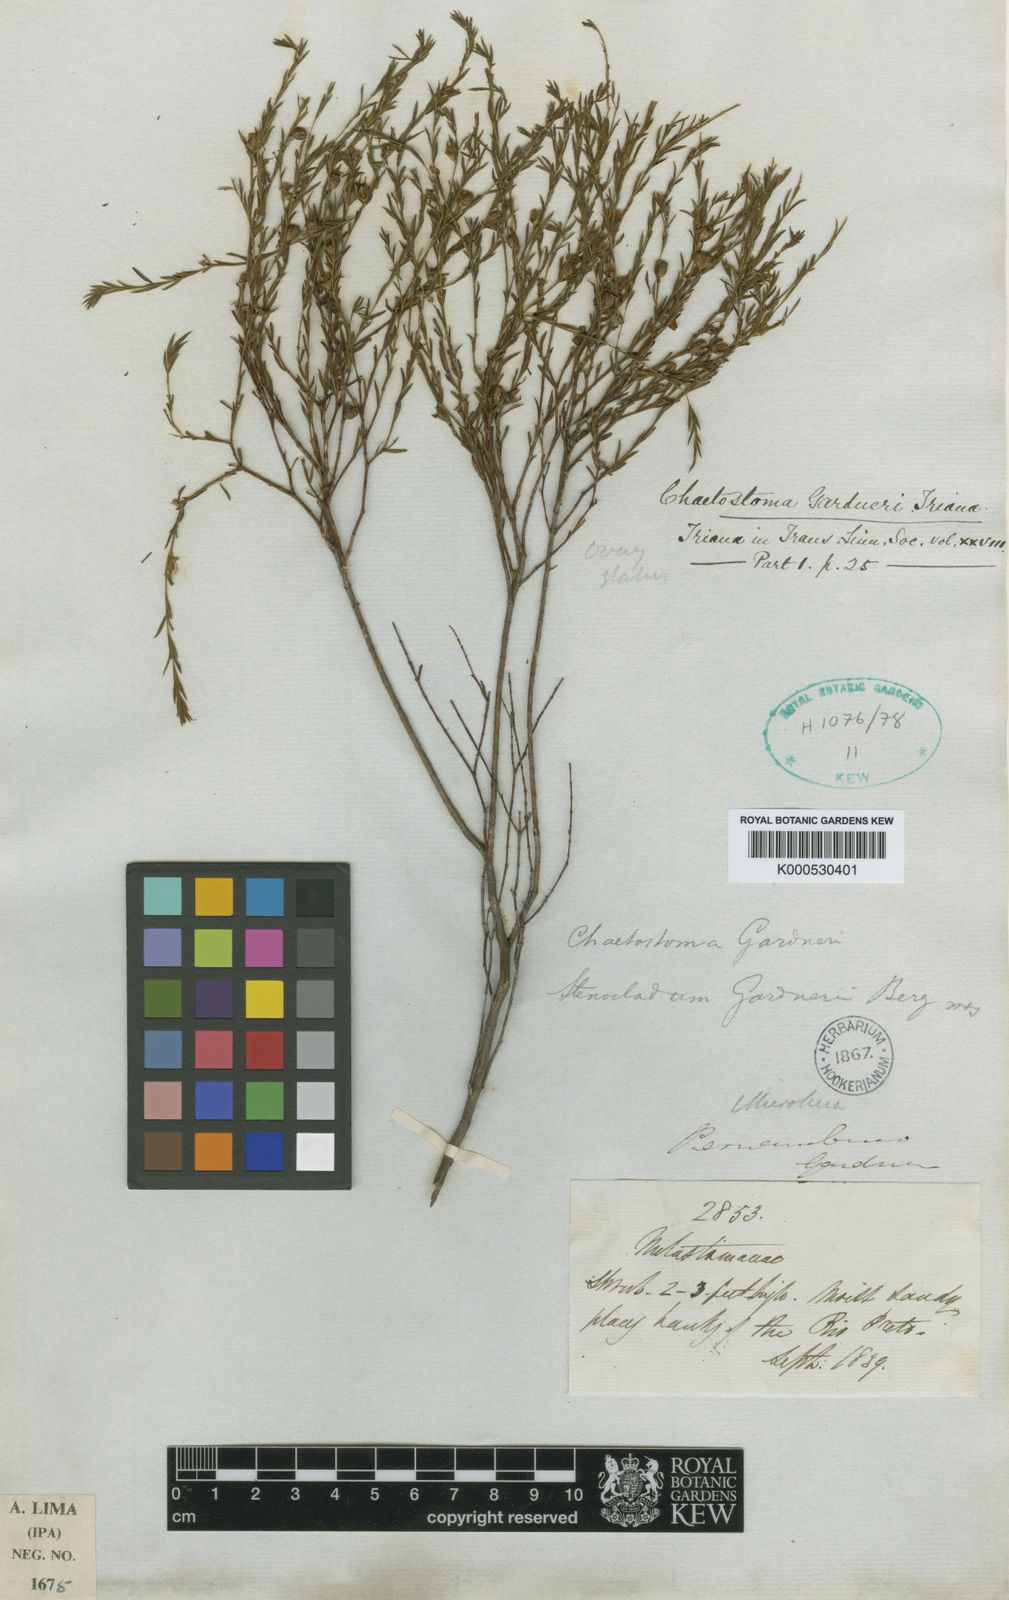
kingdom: Plantae
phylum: Tracheophyta
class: Magnoliopsida
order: Myrtales
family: Melastomataceae
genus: Microlicia
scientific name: Microlicia baumgratziana
